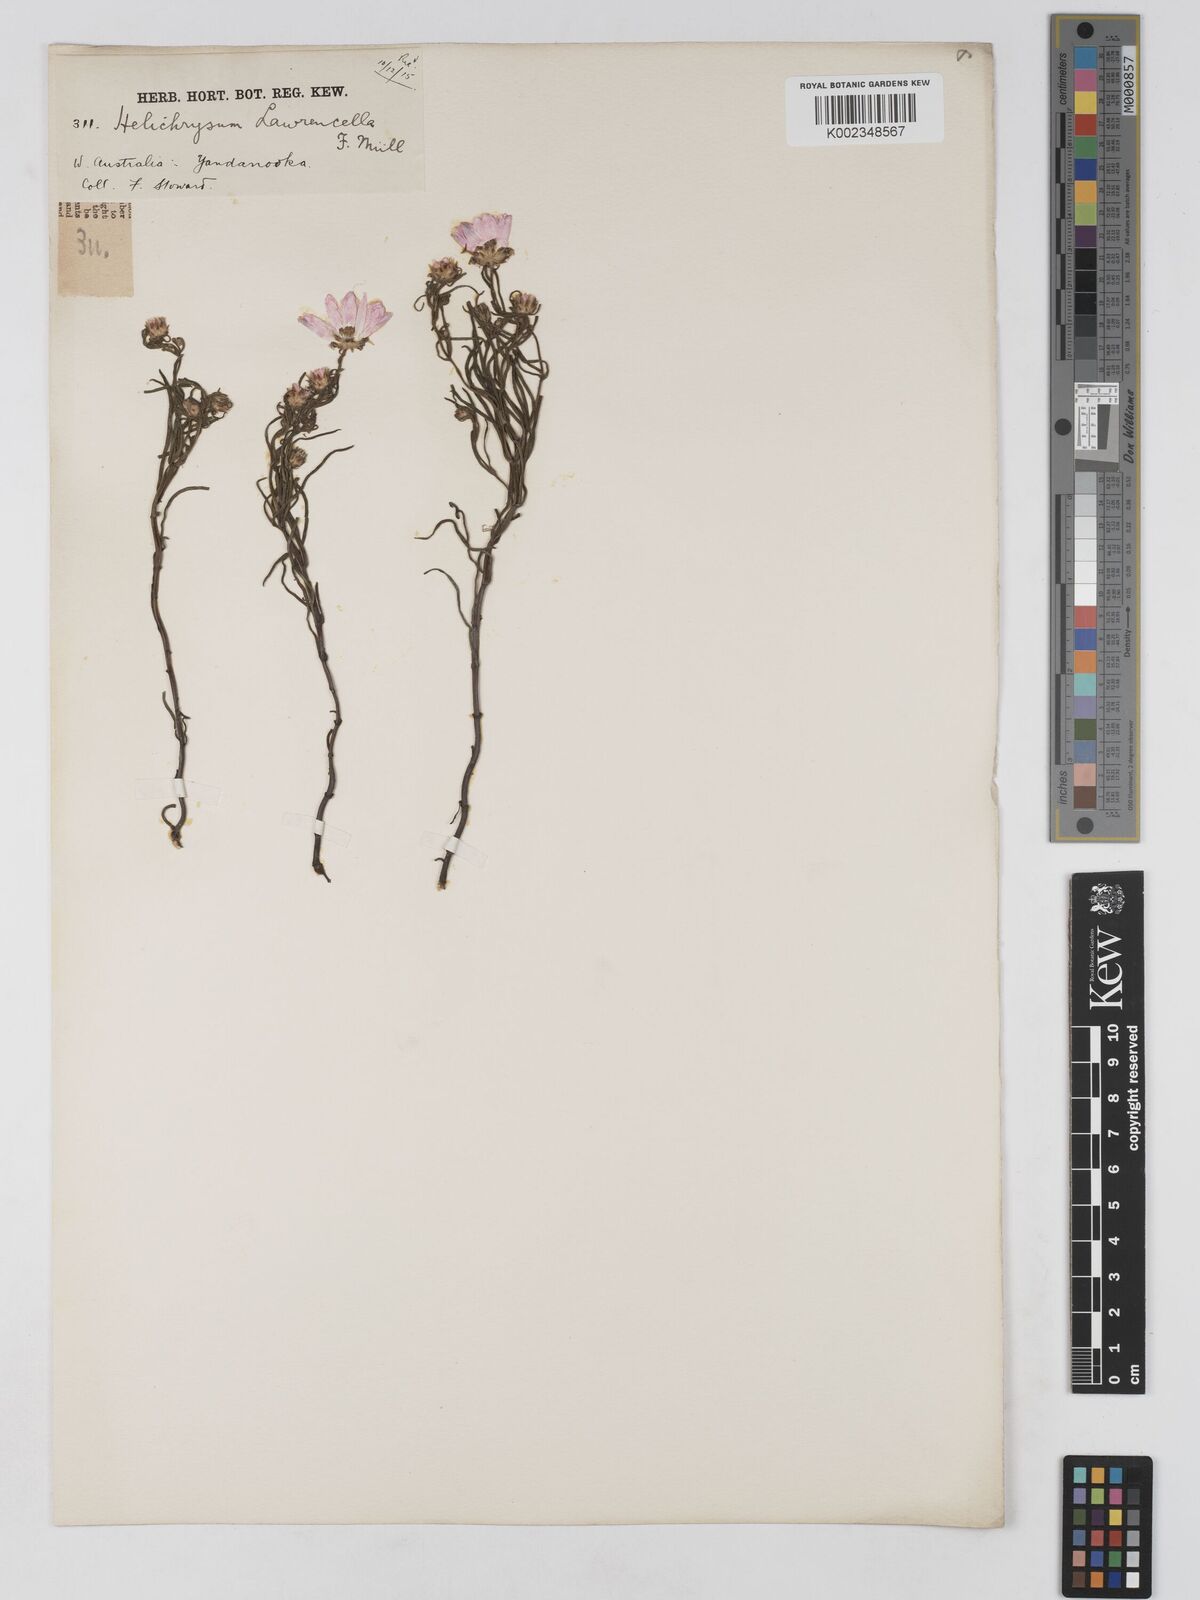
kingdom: Plantae
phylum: Tracheophyta
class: Magnoliopsida
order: Asterales
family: Asteraceae
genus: Lawrencella
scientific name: Lawrencella rosea
